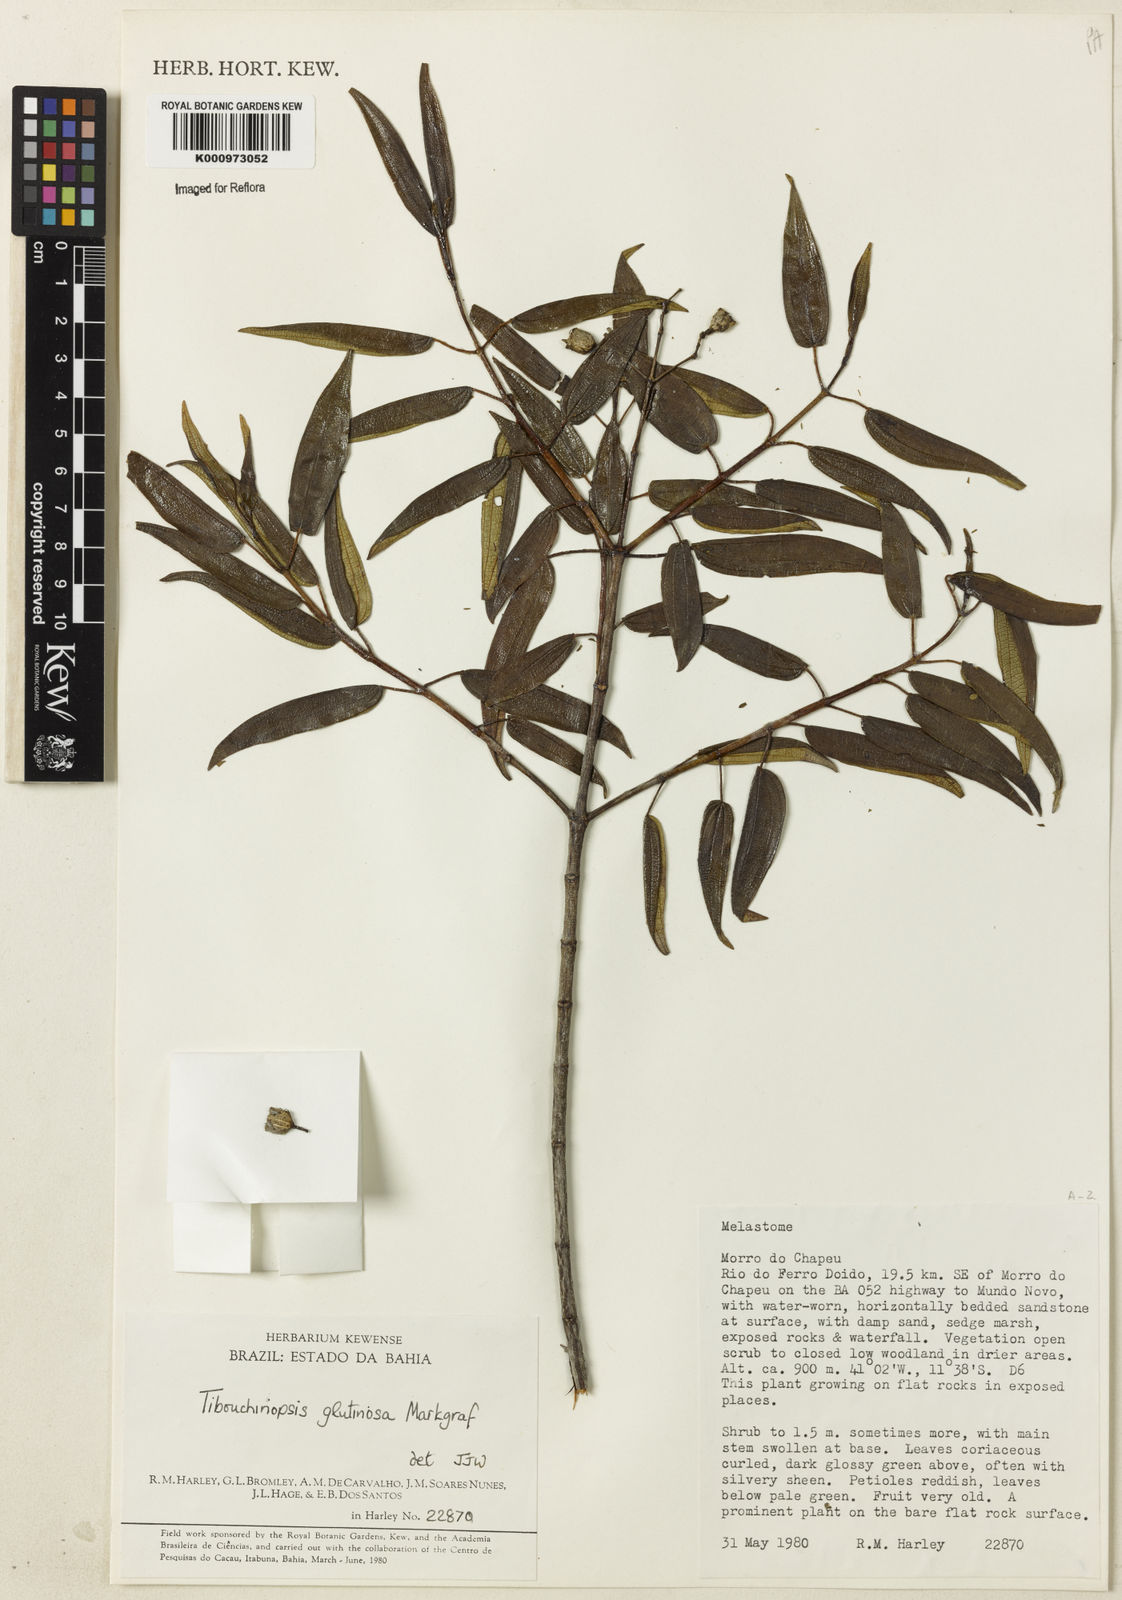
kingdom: Plantae
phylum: Tracheophyta
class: Magnoliopsida
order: Myrtales
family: Melastomataceae
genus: Pleroma
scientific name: Pleroma glutinosum
